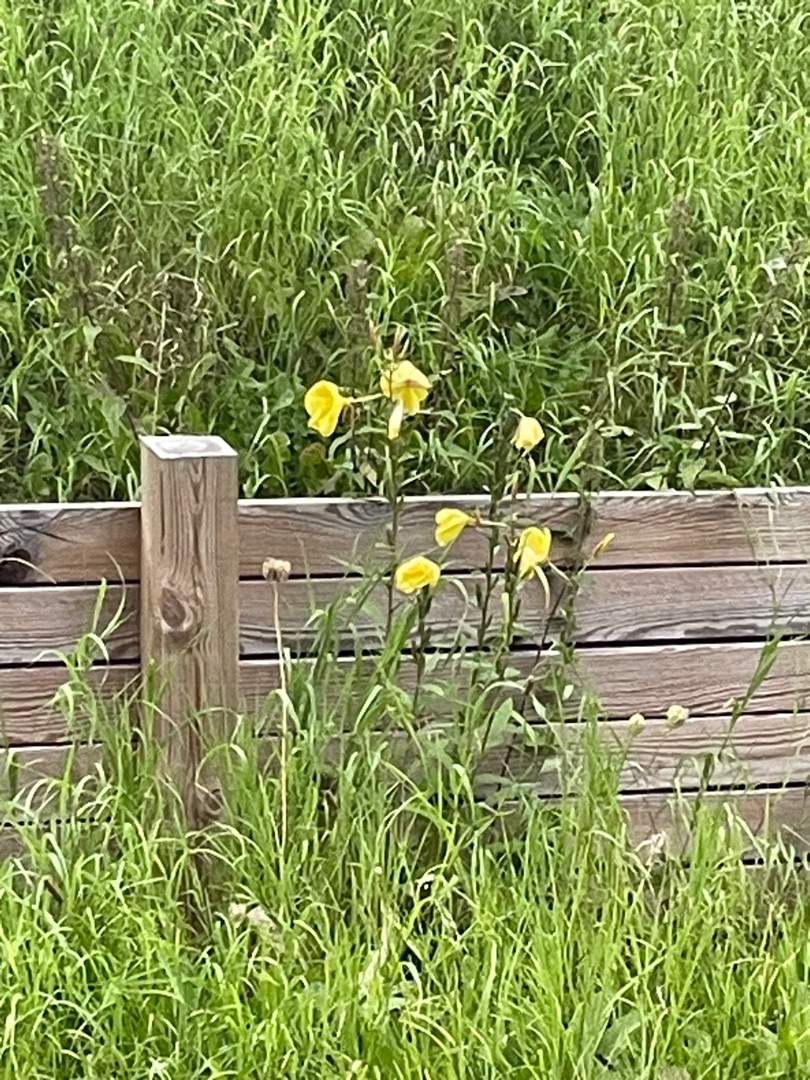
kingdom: Plantae
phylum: Tracheophyta
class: Magnoliopsida
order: Myrtales
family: Onagraceae
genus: Oenothera
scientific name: Oenothera glazioviana
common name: Kæmpe-natlys
